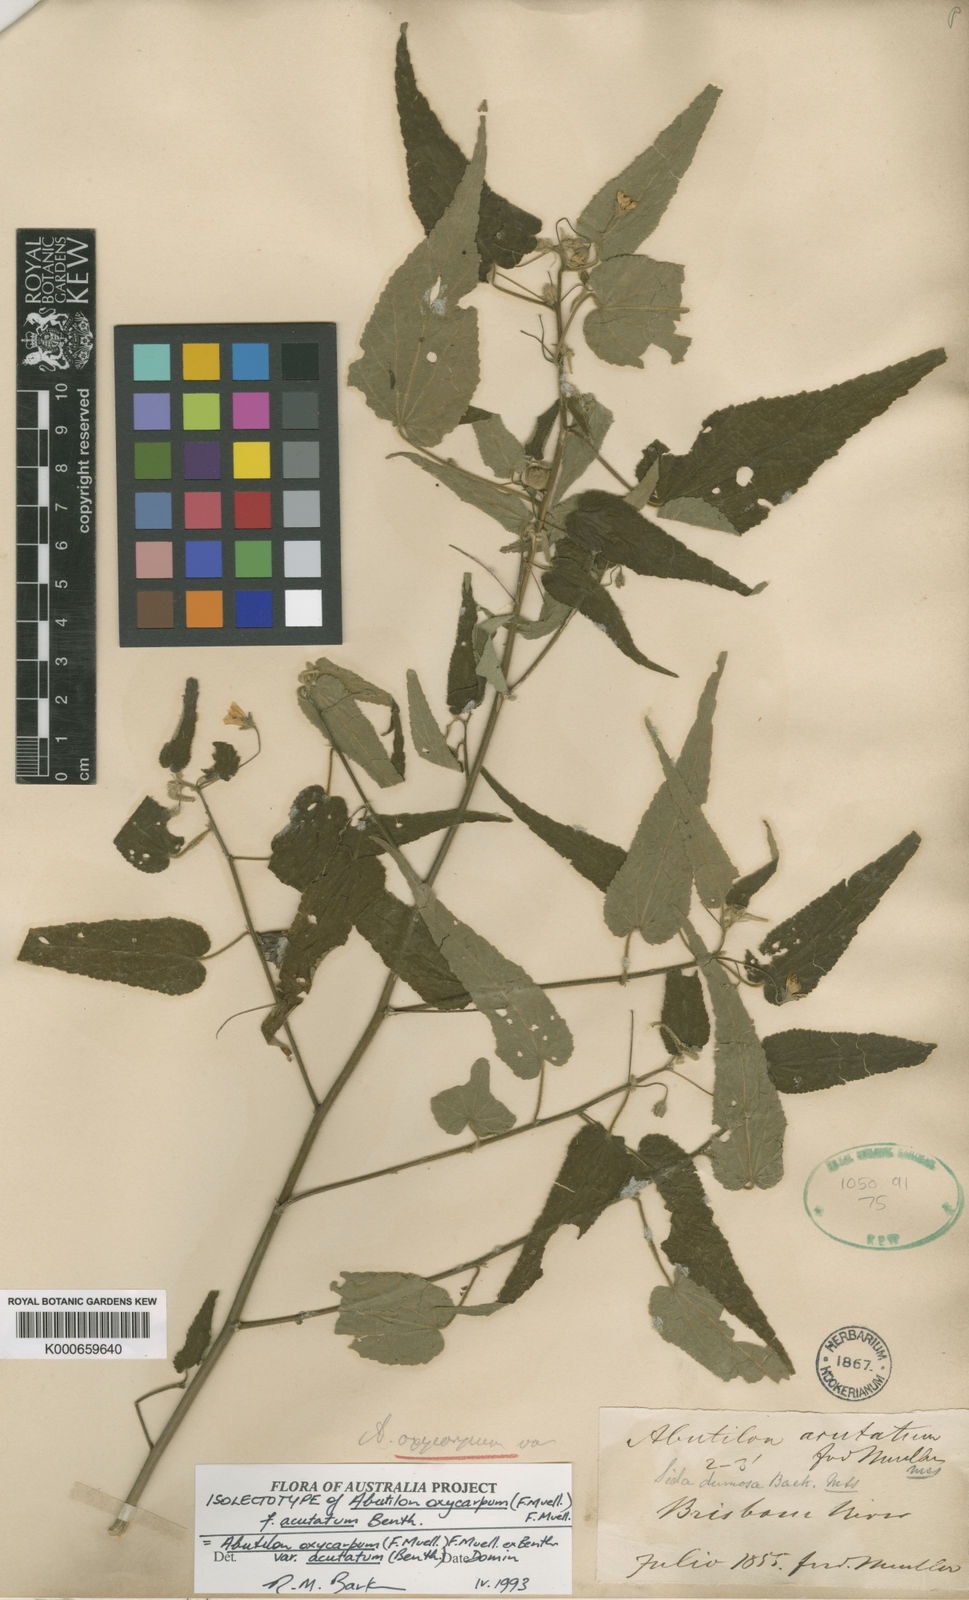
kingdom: Plantae
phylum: Tracheophyta
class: Magnoliopsida
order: Malvales
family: Malvaceae
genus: Abutilon
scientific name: Abutilon oxycarpum
